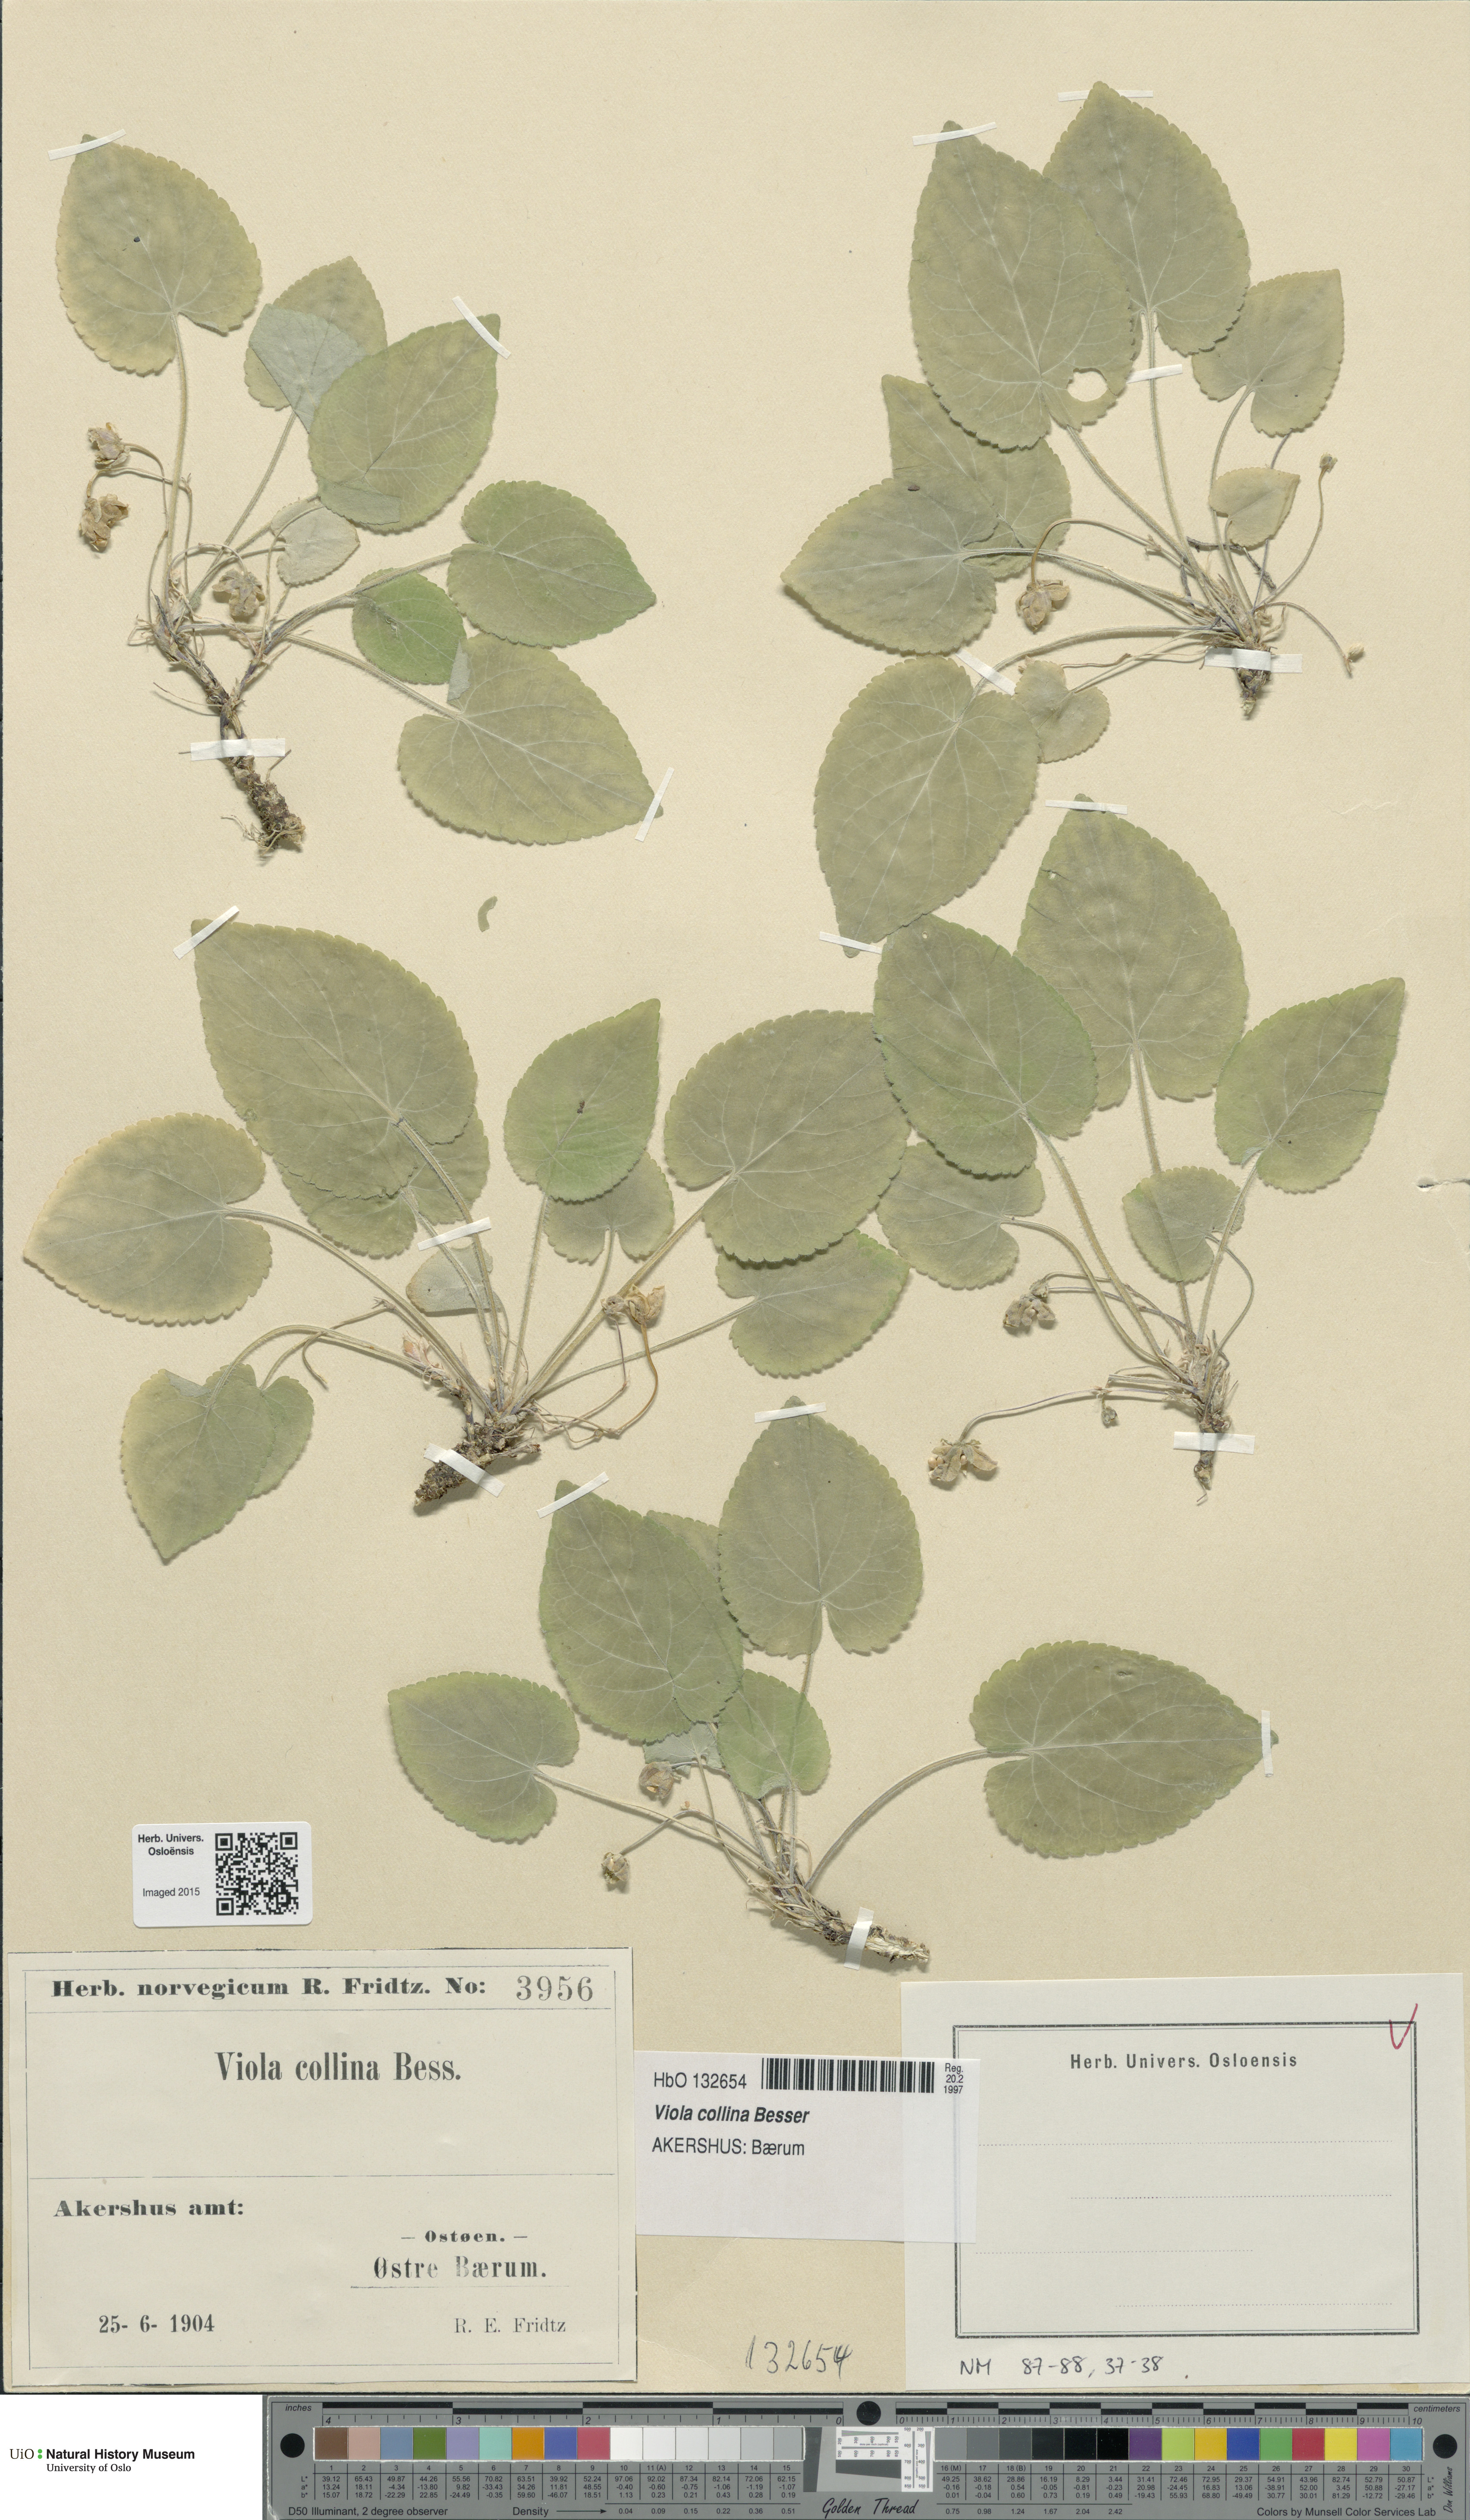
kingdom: Plantae
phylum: Tracheophyta
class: Magnoliopsida
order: Malpighiales
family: Violaceae
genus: Viola
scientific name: Viola collina
